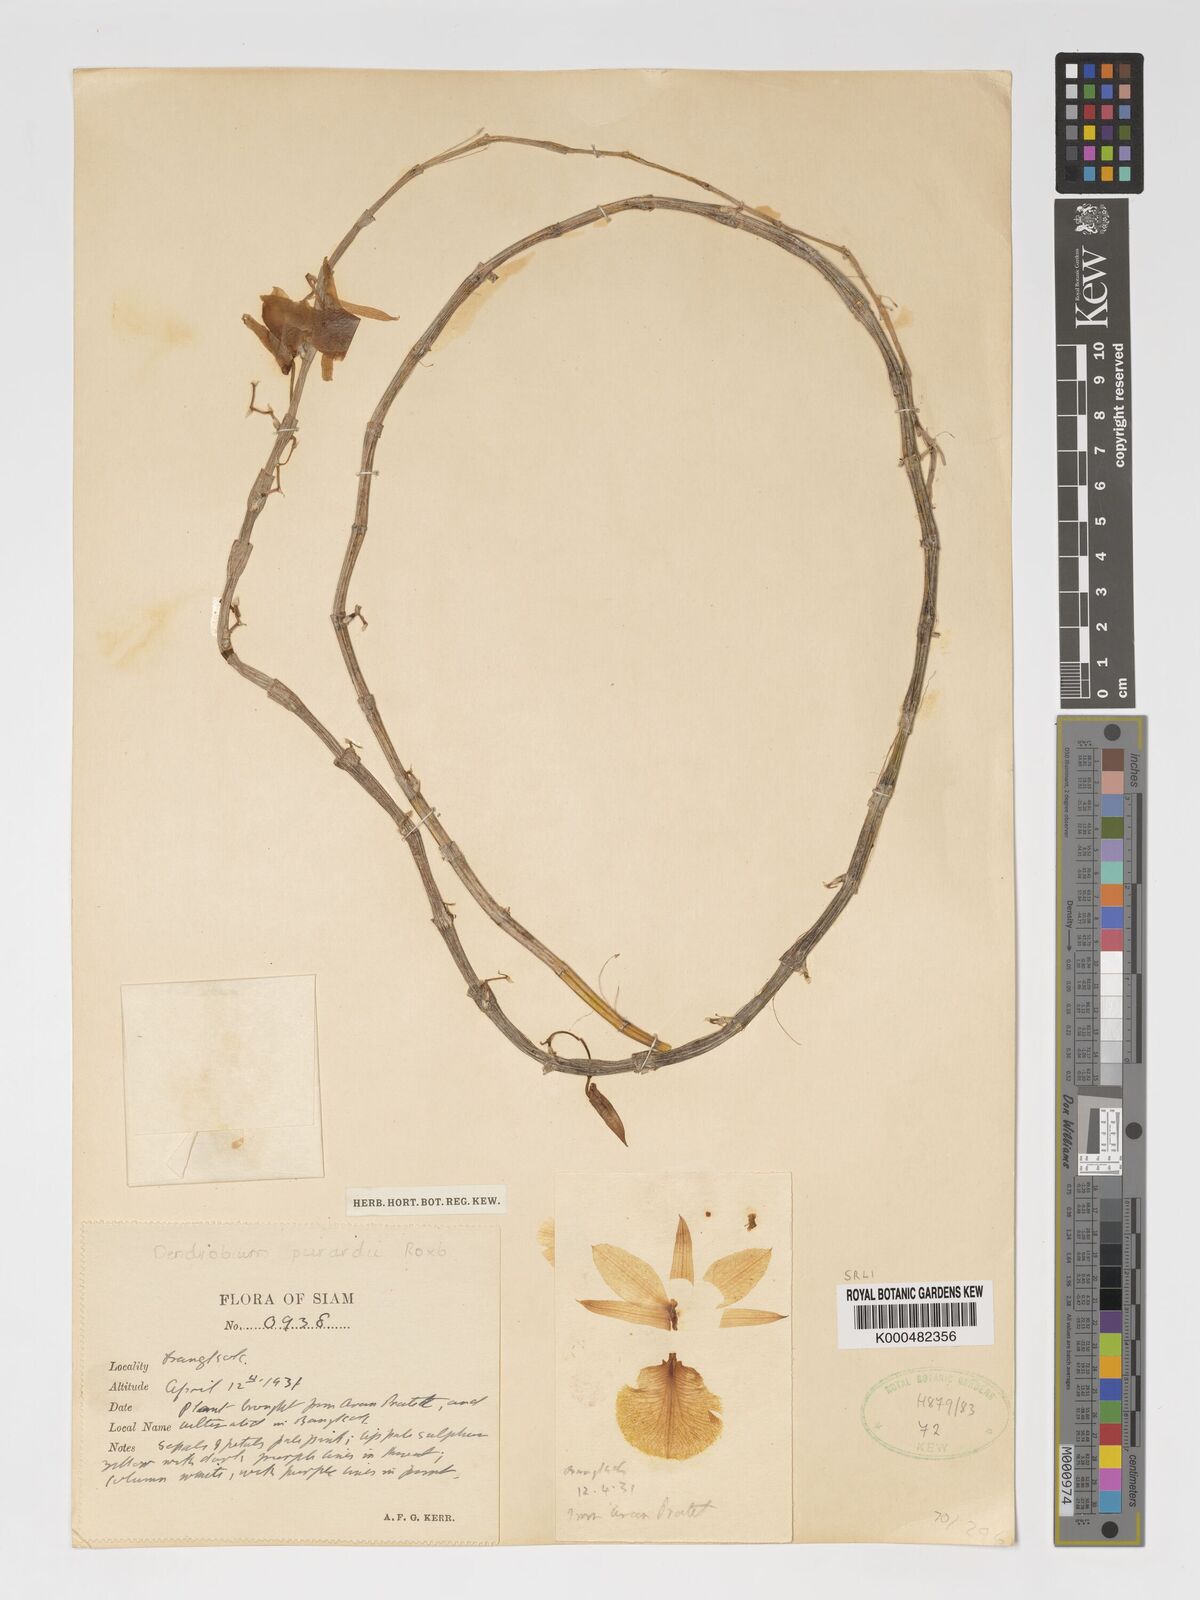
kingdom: Plantae
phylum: Tracheophyta
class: Liliopsida
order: Asparagales
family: Orchidaceae
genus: Dendrobium
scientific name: Dendrobium macrostachyum
